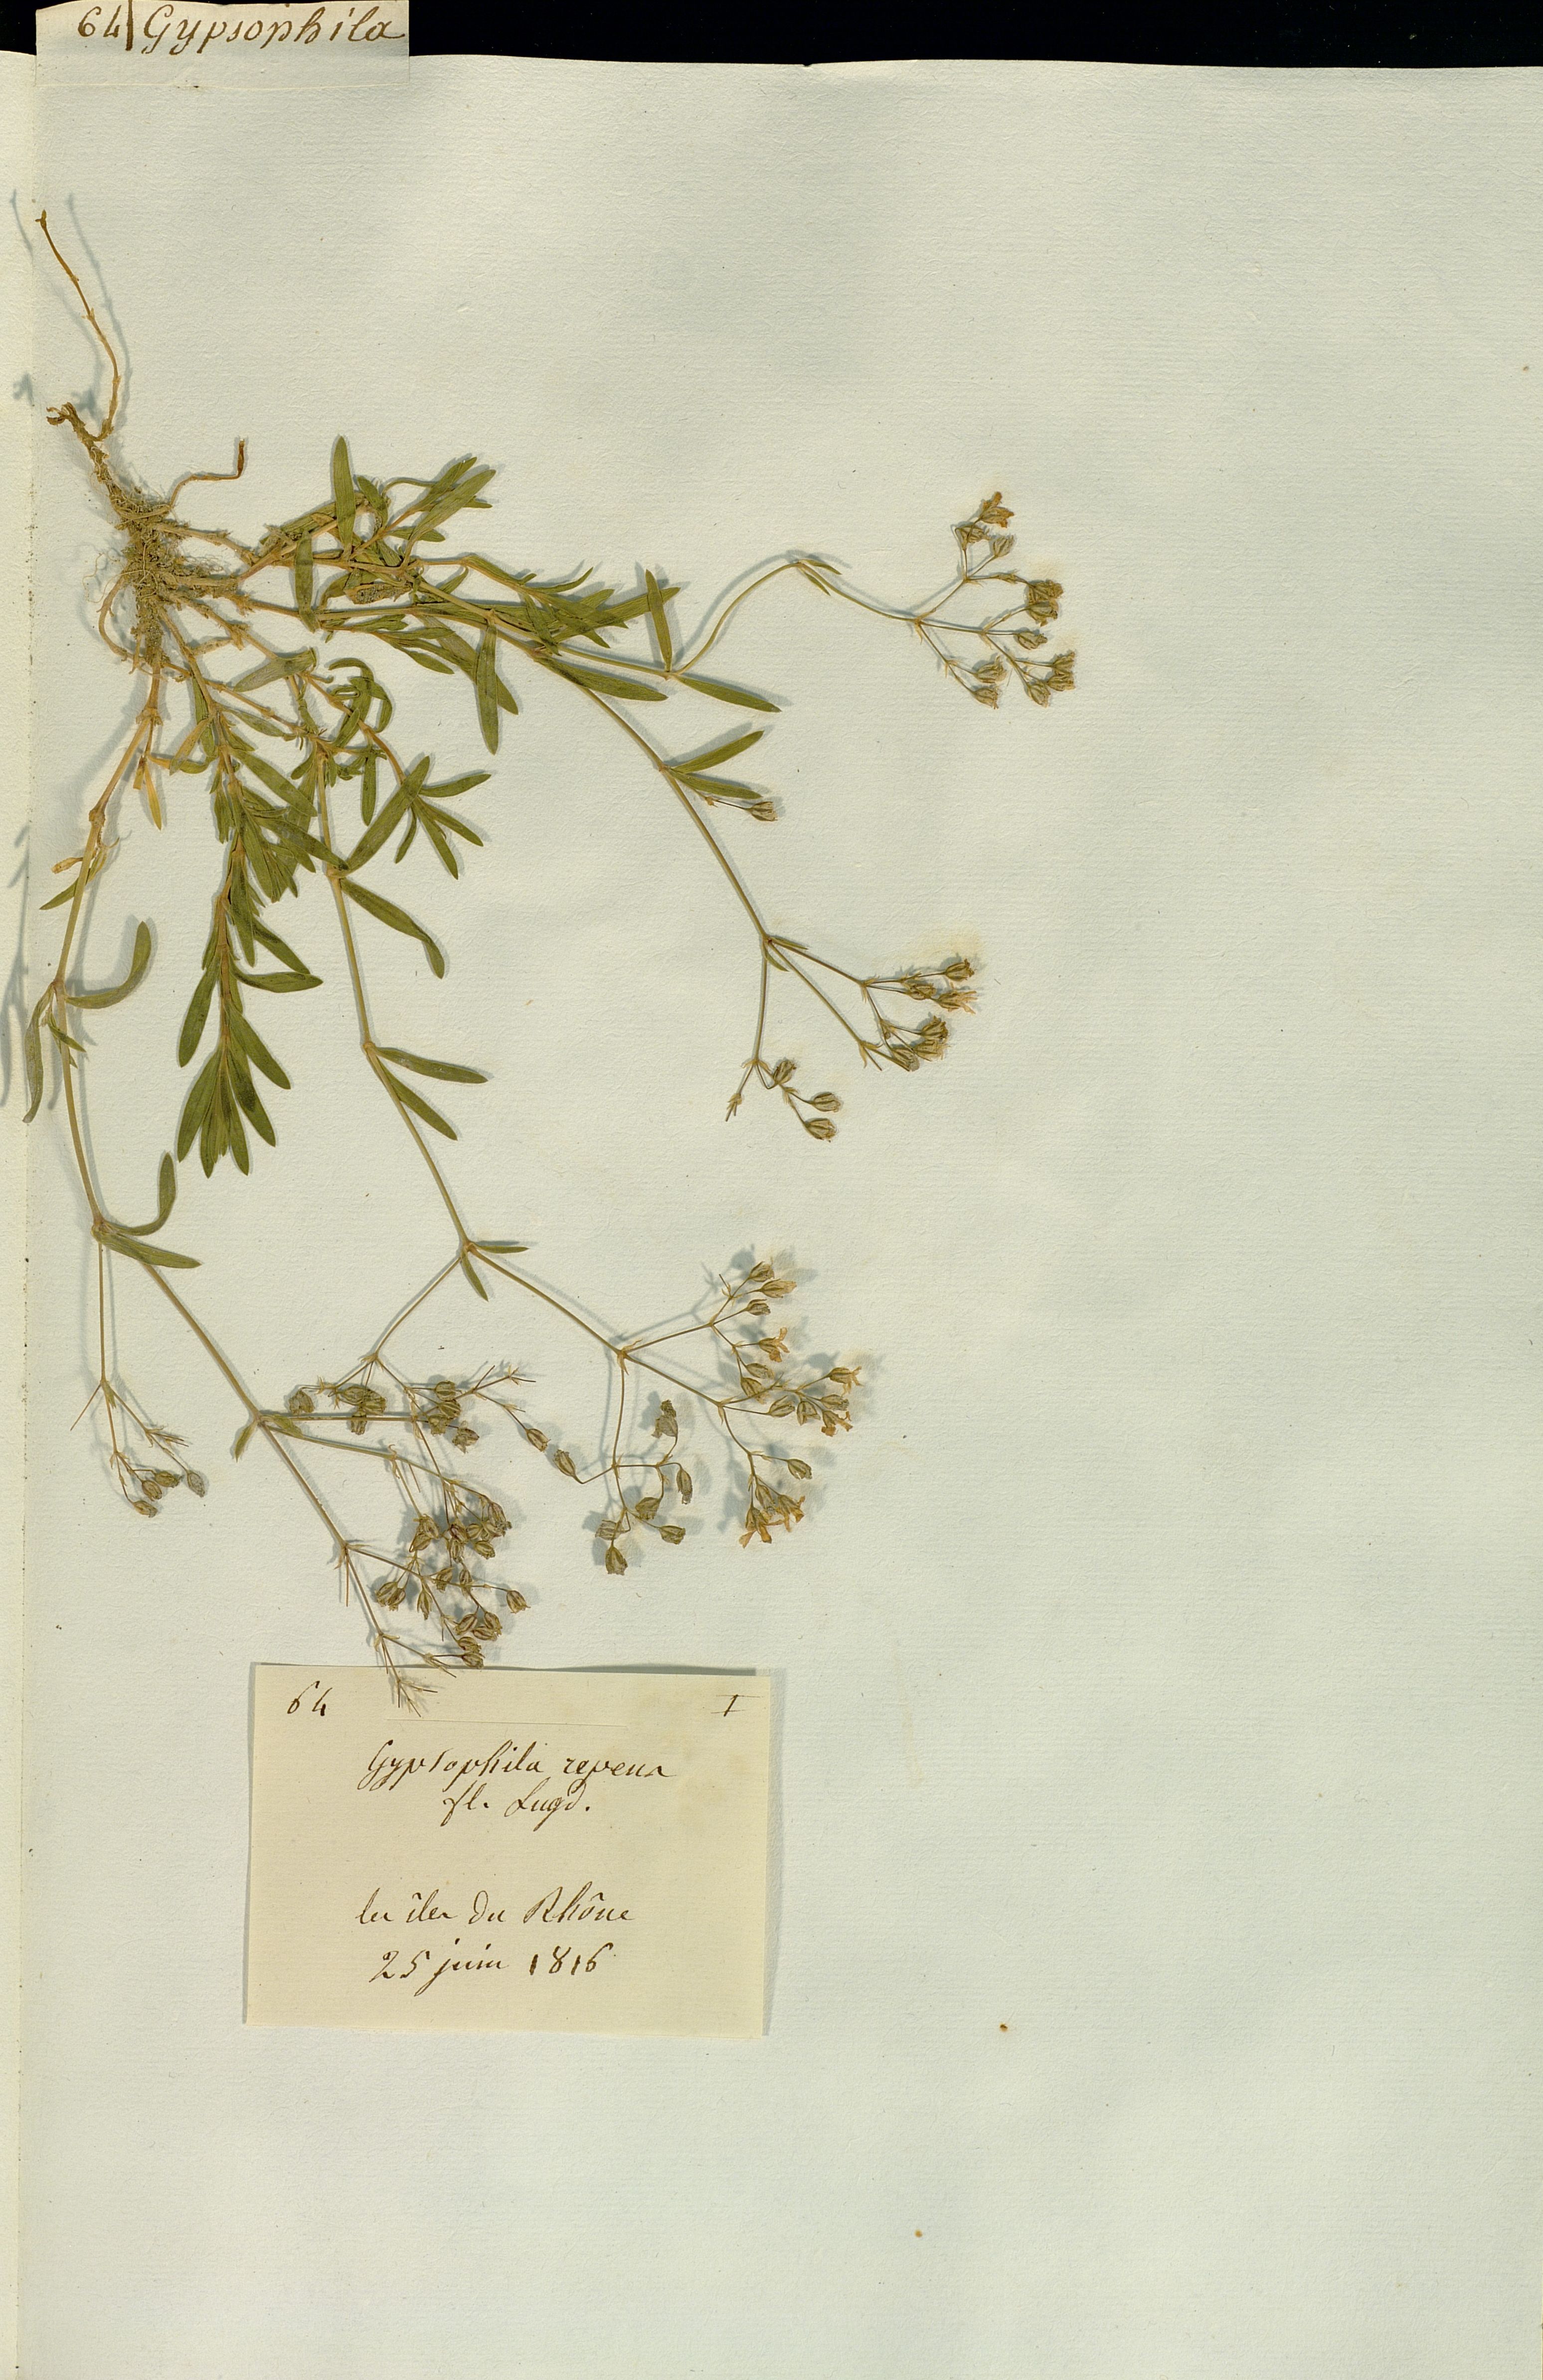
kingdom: Plantae
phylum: Tracheophyta
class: Magnoliopsida
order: Caryophyllales
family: Caryophyllaceae
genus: Gypsophila
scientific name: Gypsophila repens
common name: Creeping baby's-breath
